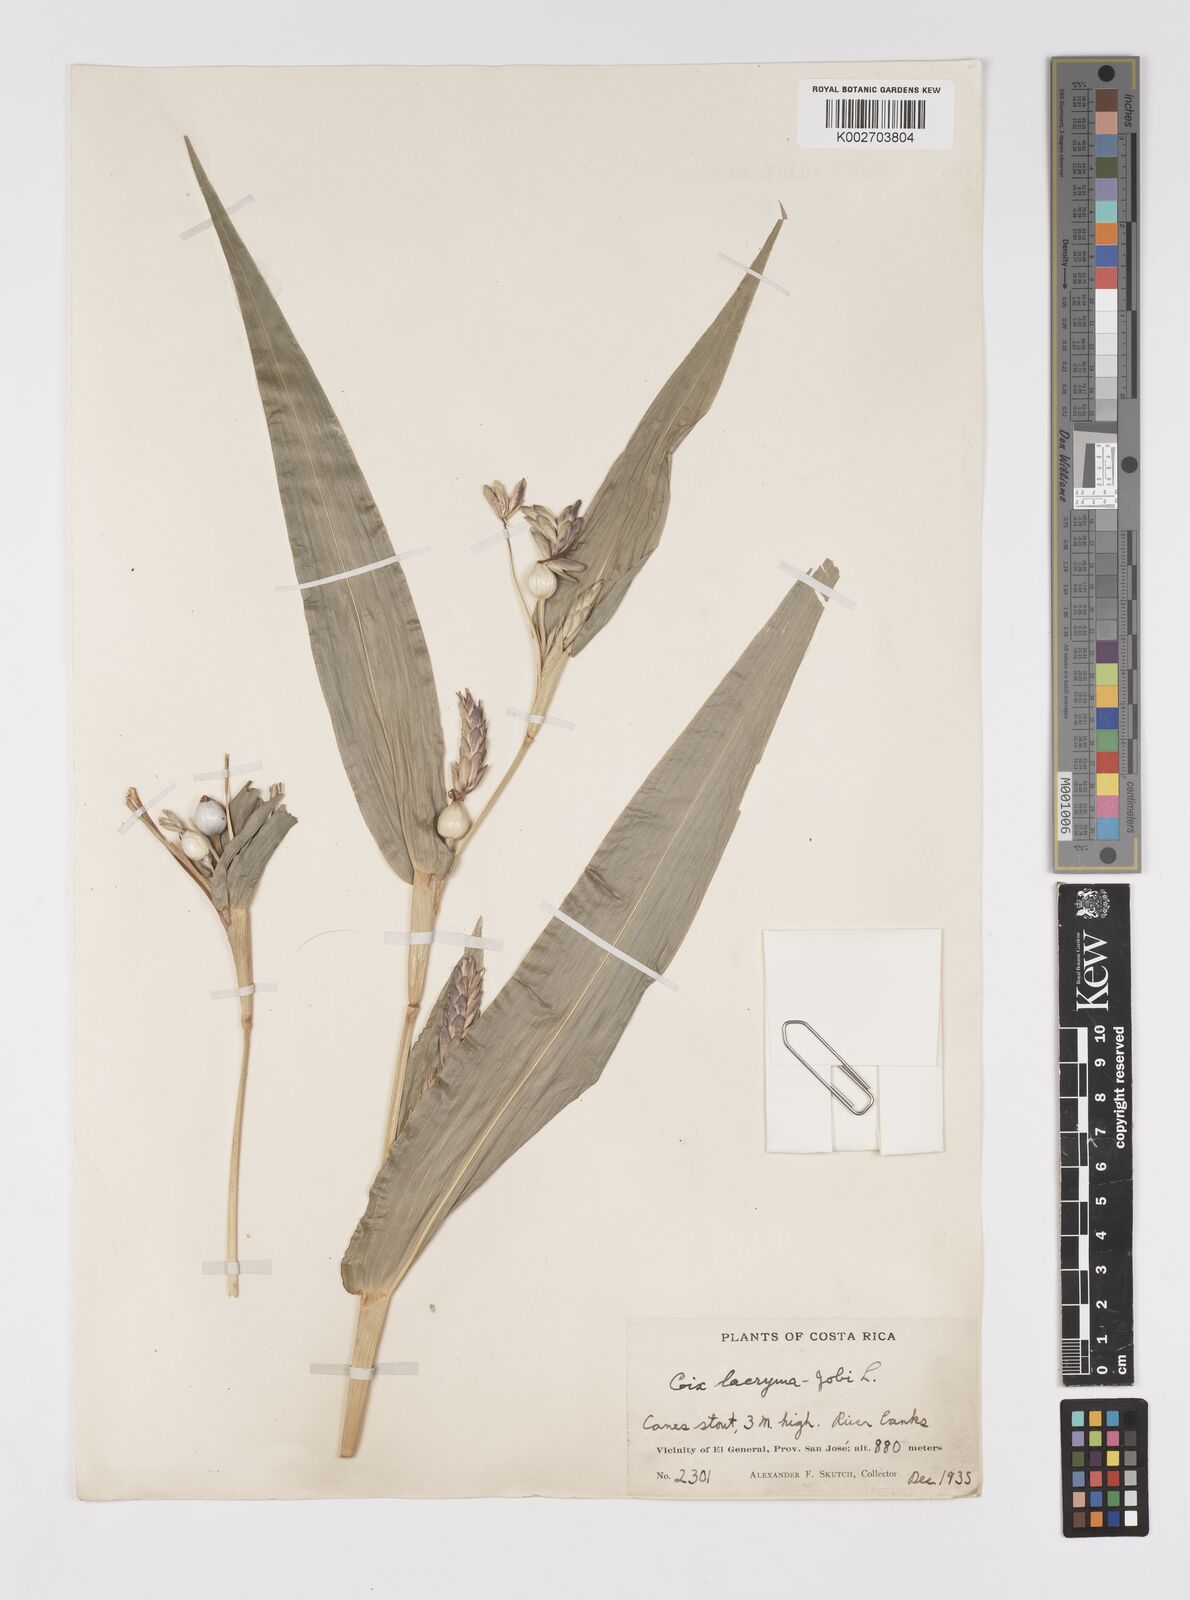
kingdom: Plantae
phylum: Tracheophyta
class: Liliopsida
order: Poales
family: Poaceae
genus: Coix
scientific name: Coix lacryma-jobi
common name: Job's tears
